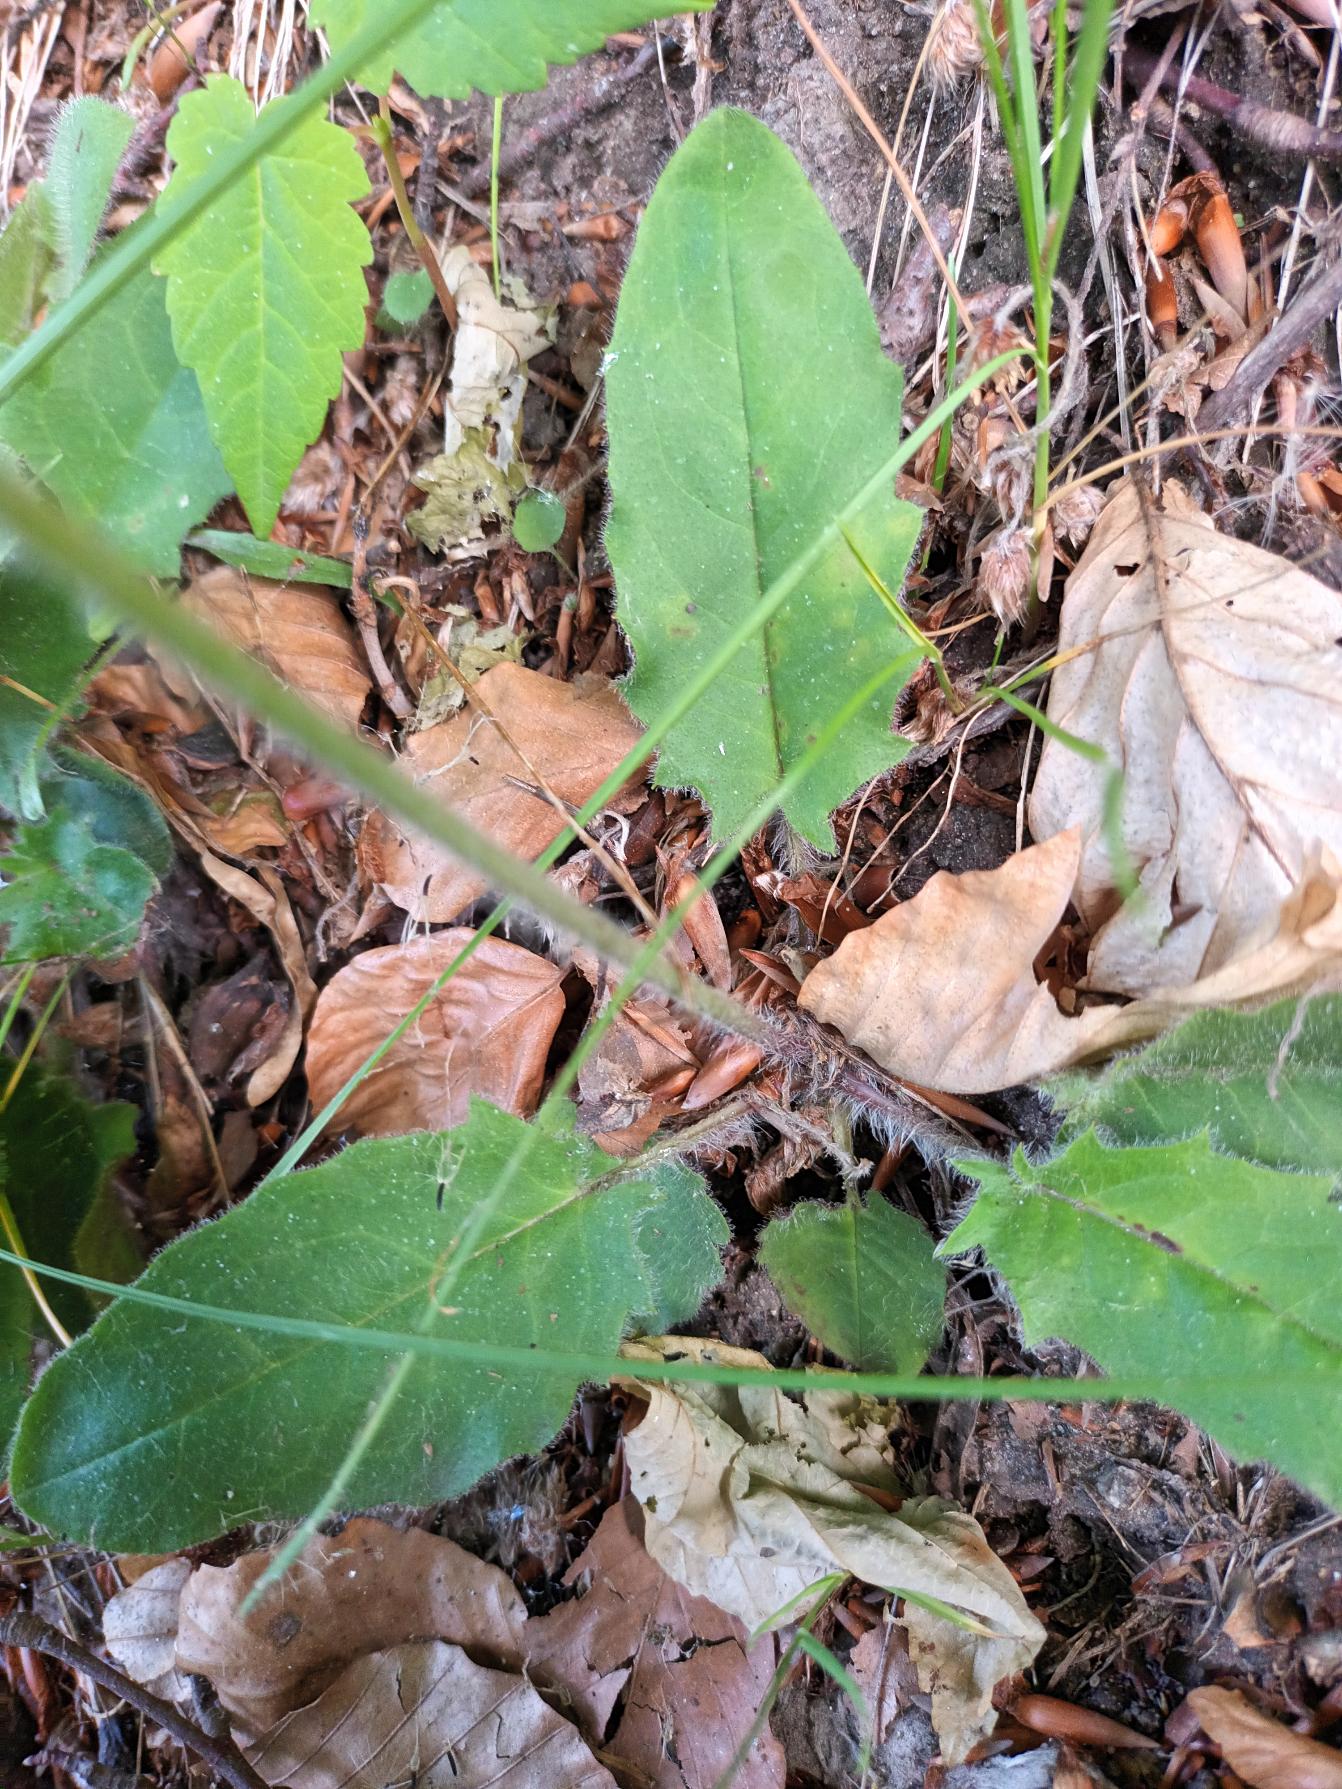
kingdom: Plantae
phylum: Tracheophyta
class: Magnoliopsida
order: Asterales
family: Asteraceae
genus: Hieracium
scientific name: Hieracium murorum
